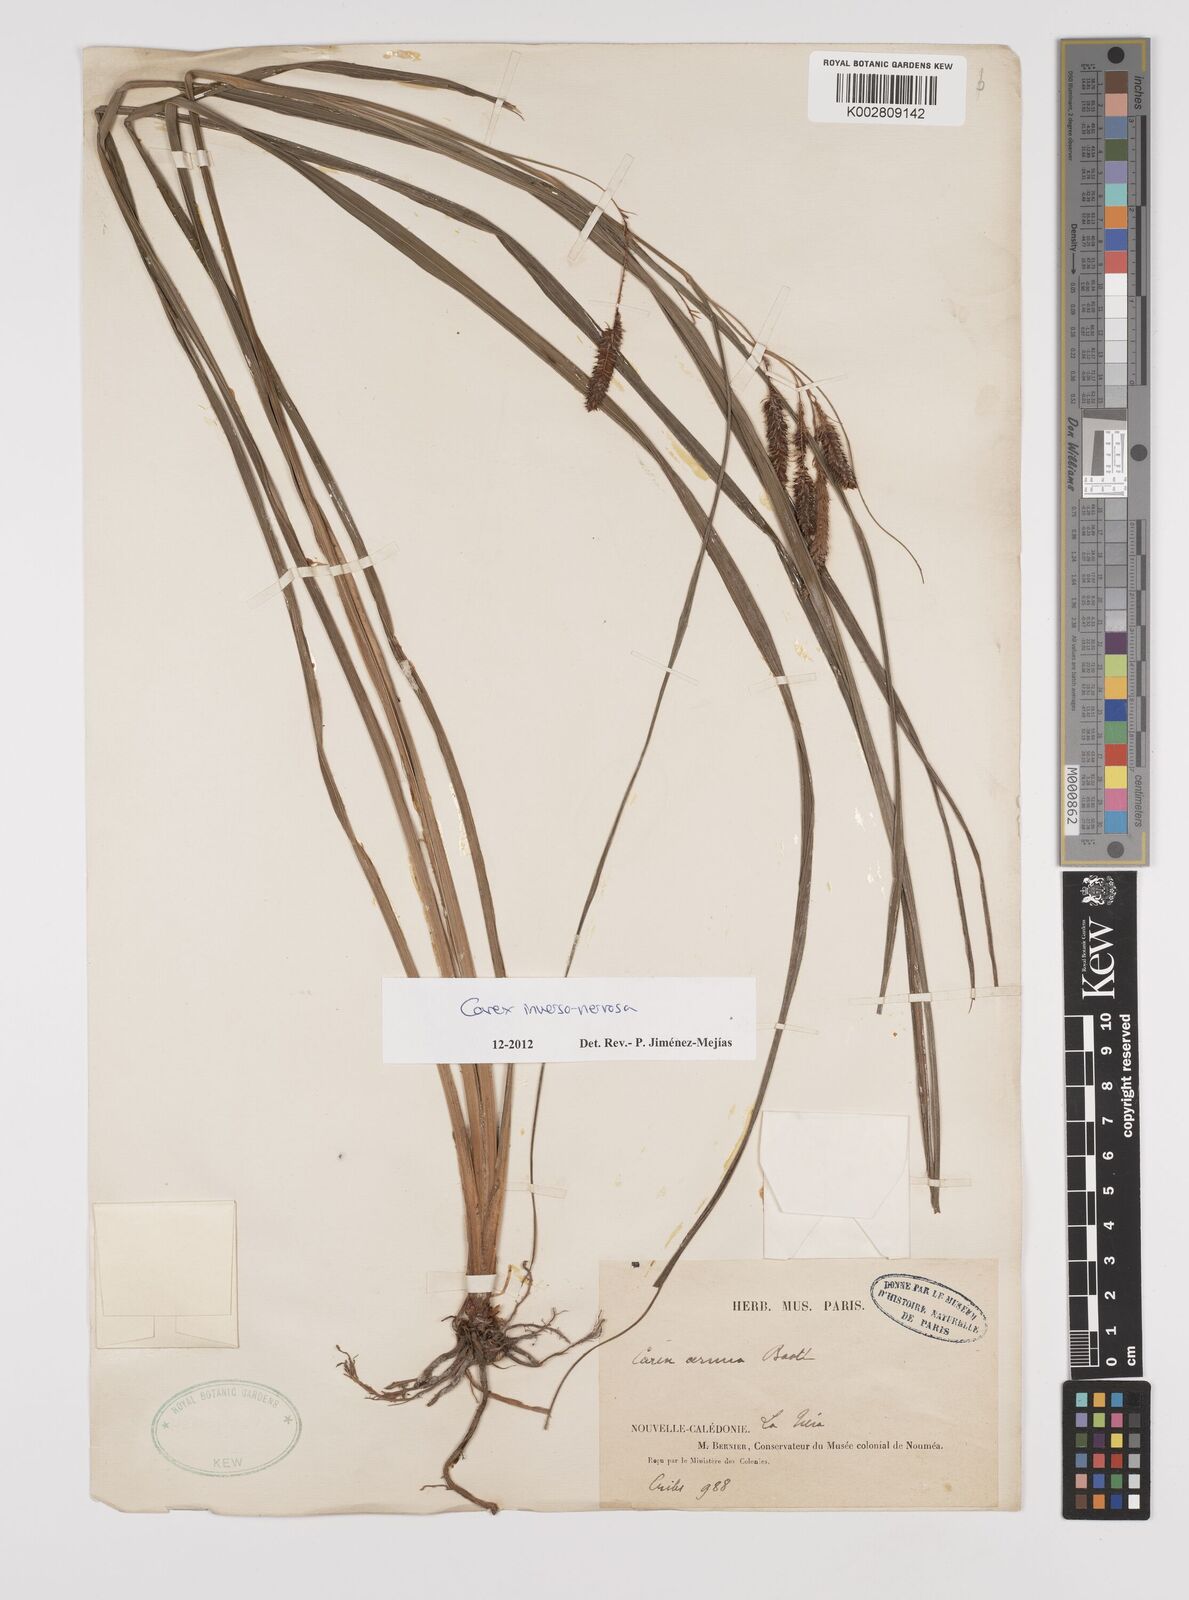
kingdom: Plantae
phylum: Tracheophyta
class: Liliopsida
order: Poales
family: Cyperaceae
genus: Carex
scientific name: Carex inversonervosa
